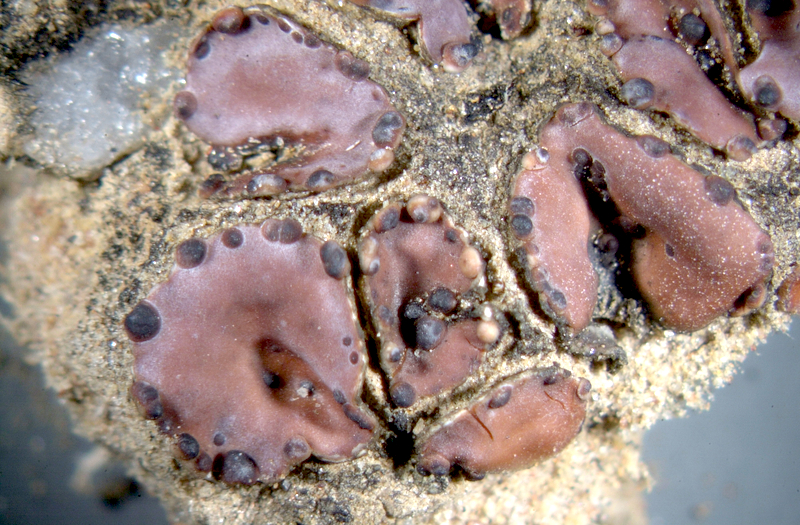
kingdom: Fungi
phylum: Ascomycota
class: Lecanoromycetes
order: Lecanorales
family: Psoraceae
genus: Psora
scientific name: Psora crenata
